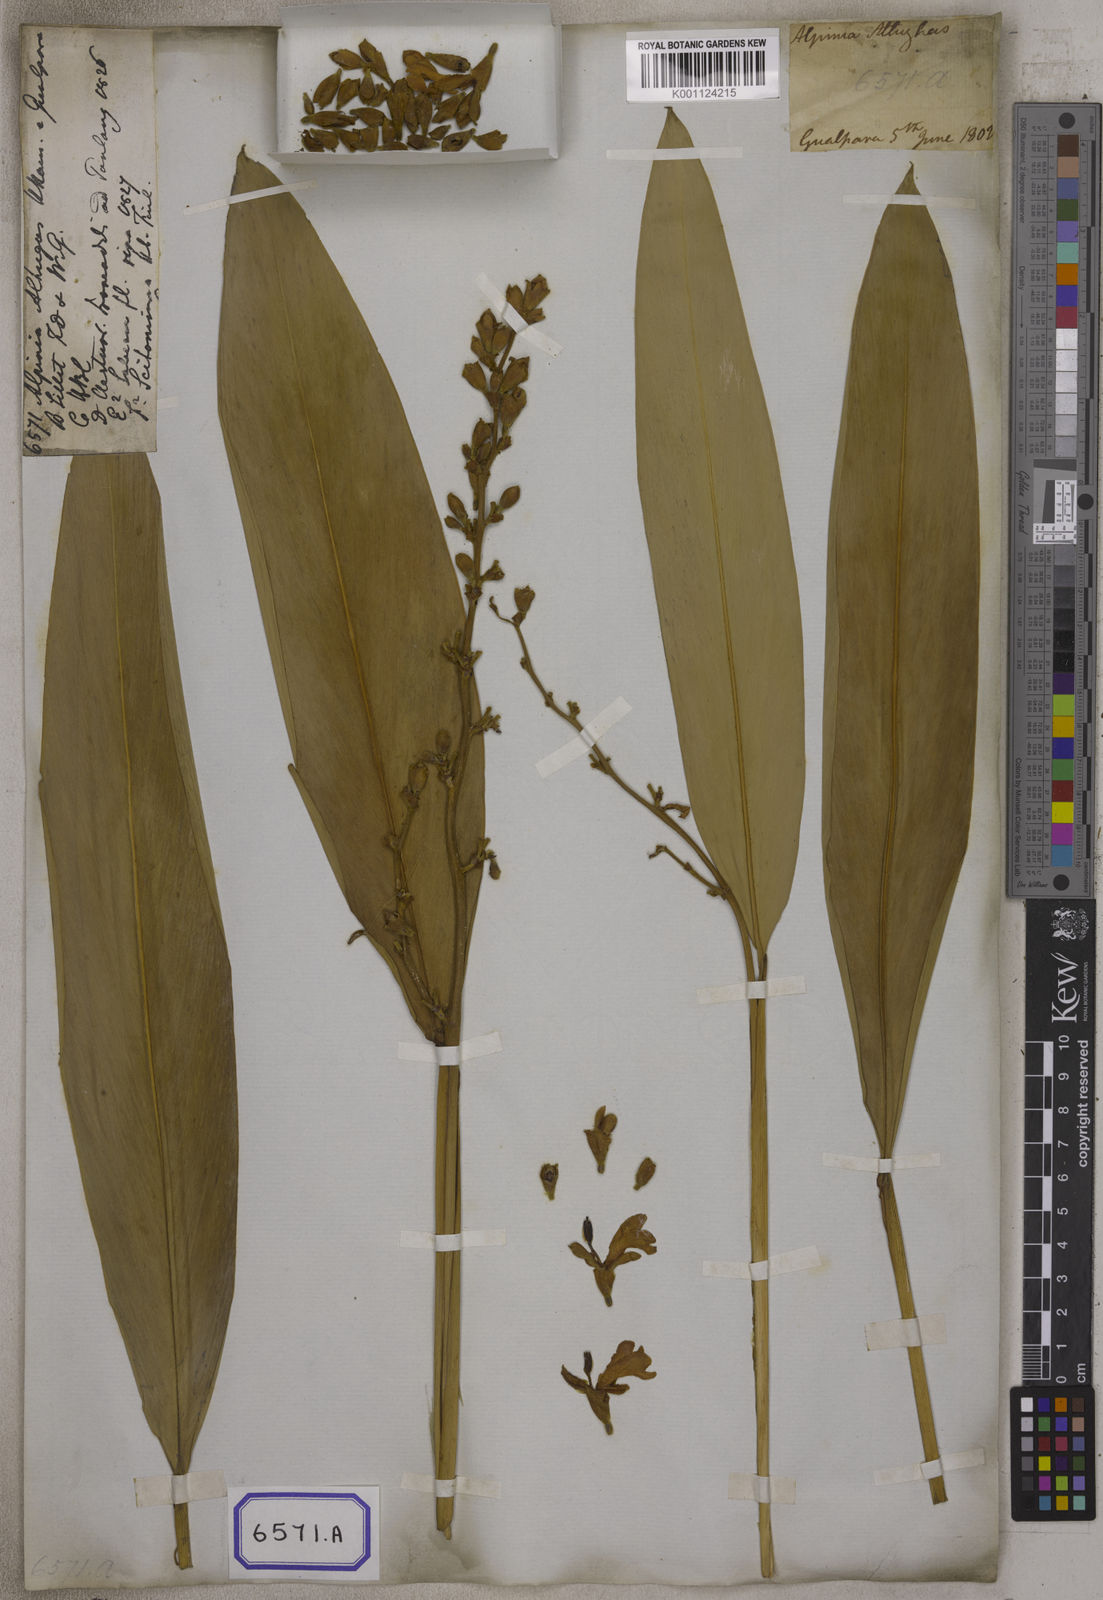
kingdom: Plantae
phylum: Tracheophyta
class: Liliopsida
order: Zingiberales
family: Zingiberaceae
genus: Alpinia
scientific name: Alpinia nigra
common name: Black fruited galanga
